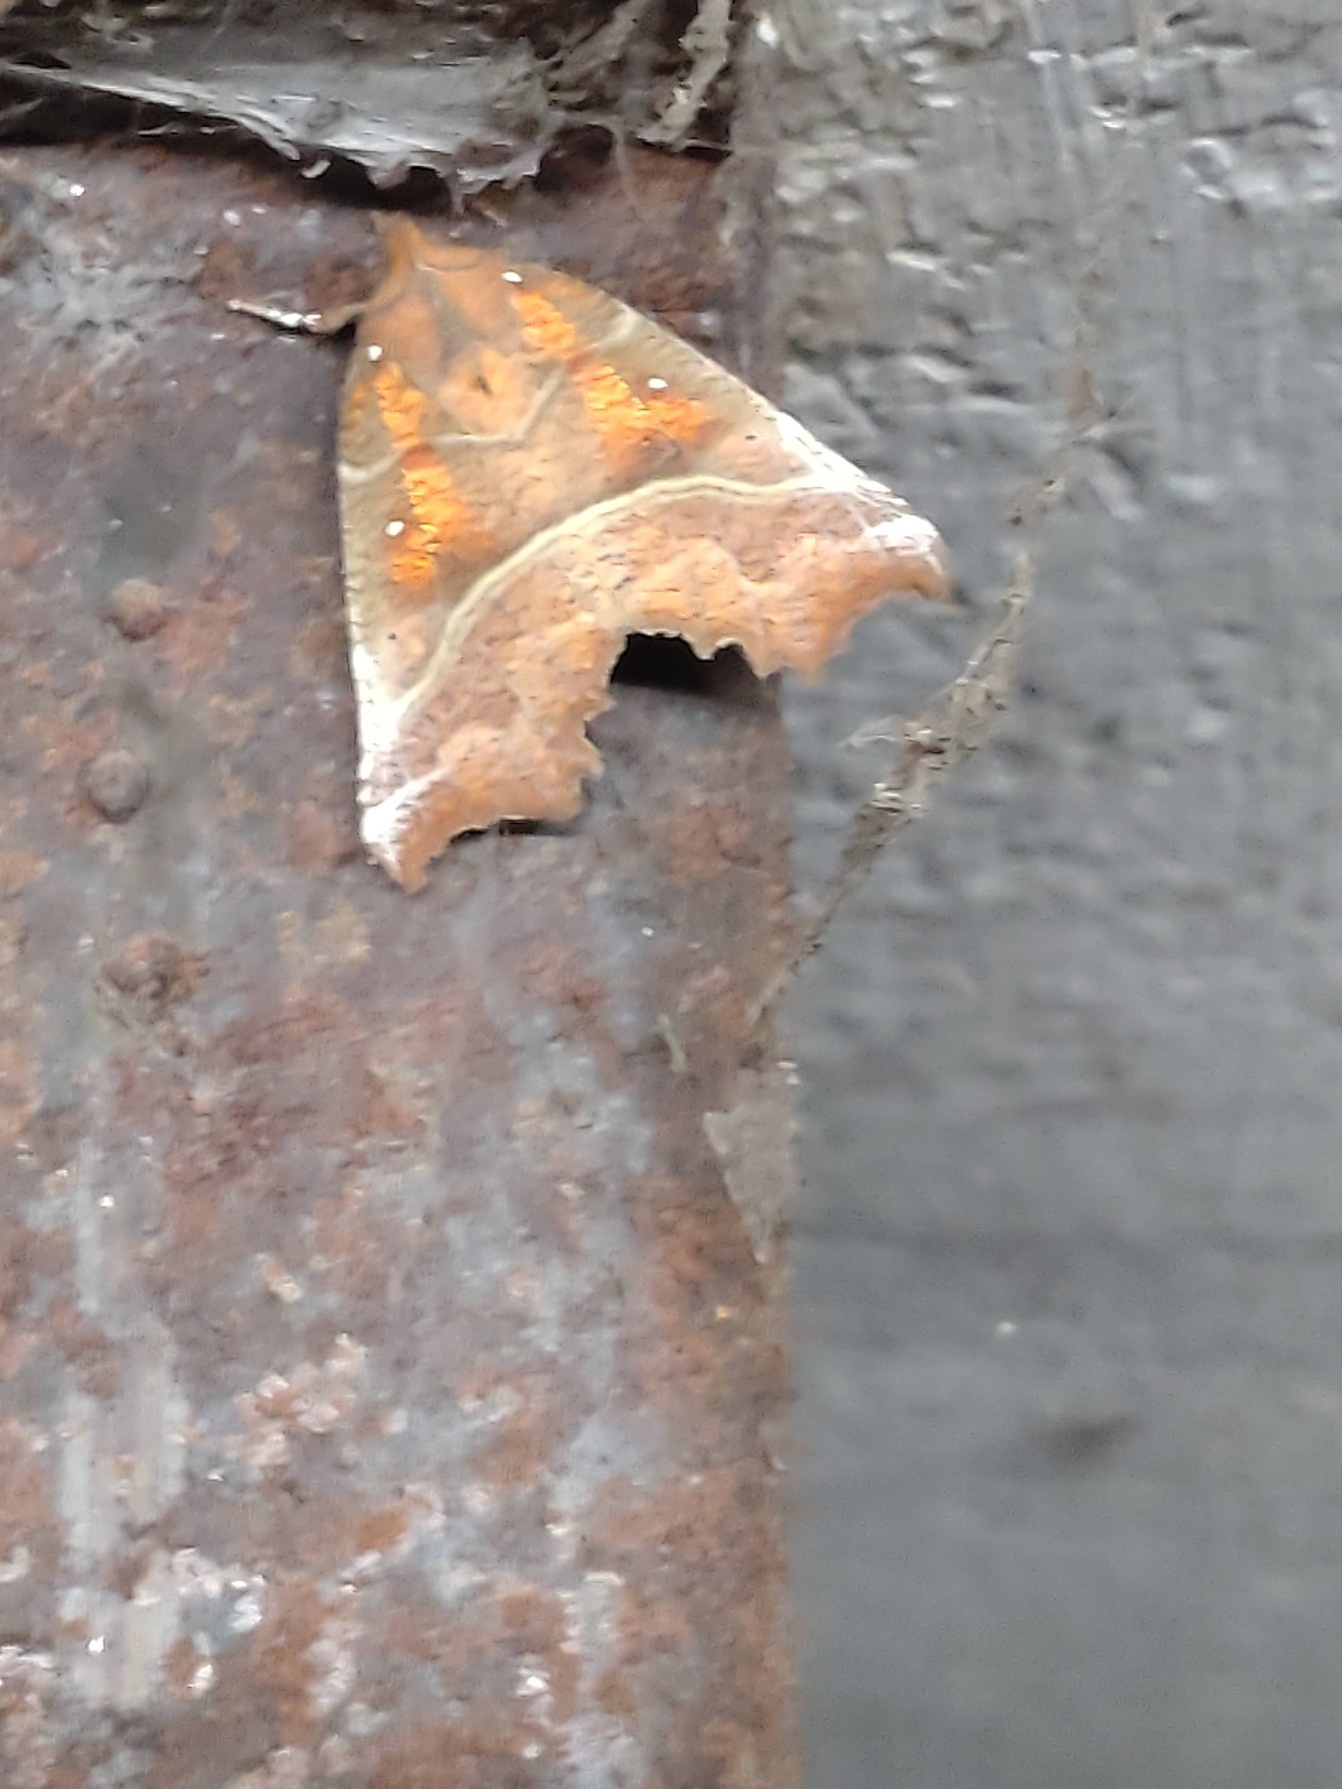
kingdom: Animalia
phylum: Arthropoda
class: Insecta
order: Lepidoptera
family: Erebidae
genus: Scoliopteryx
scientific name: Scoliopteryx libatrix
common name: Husmoderugle
